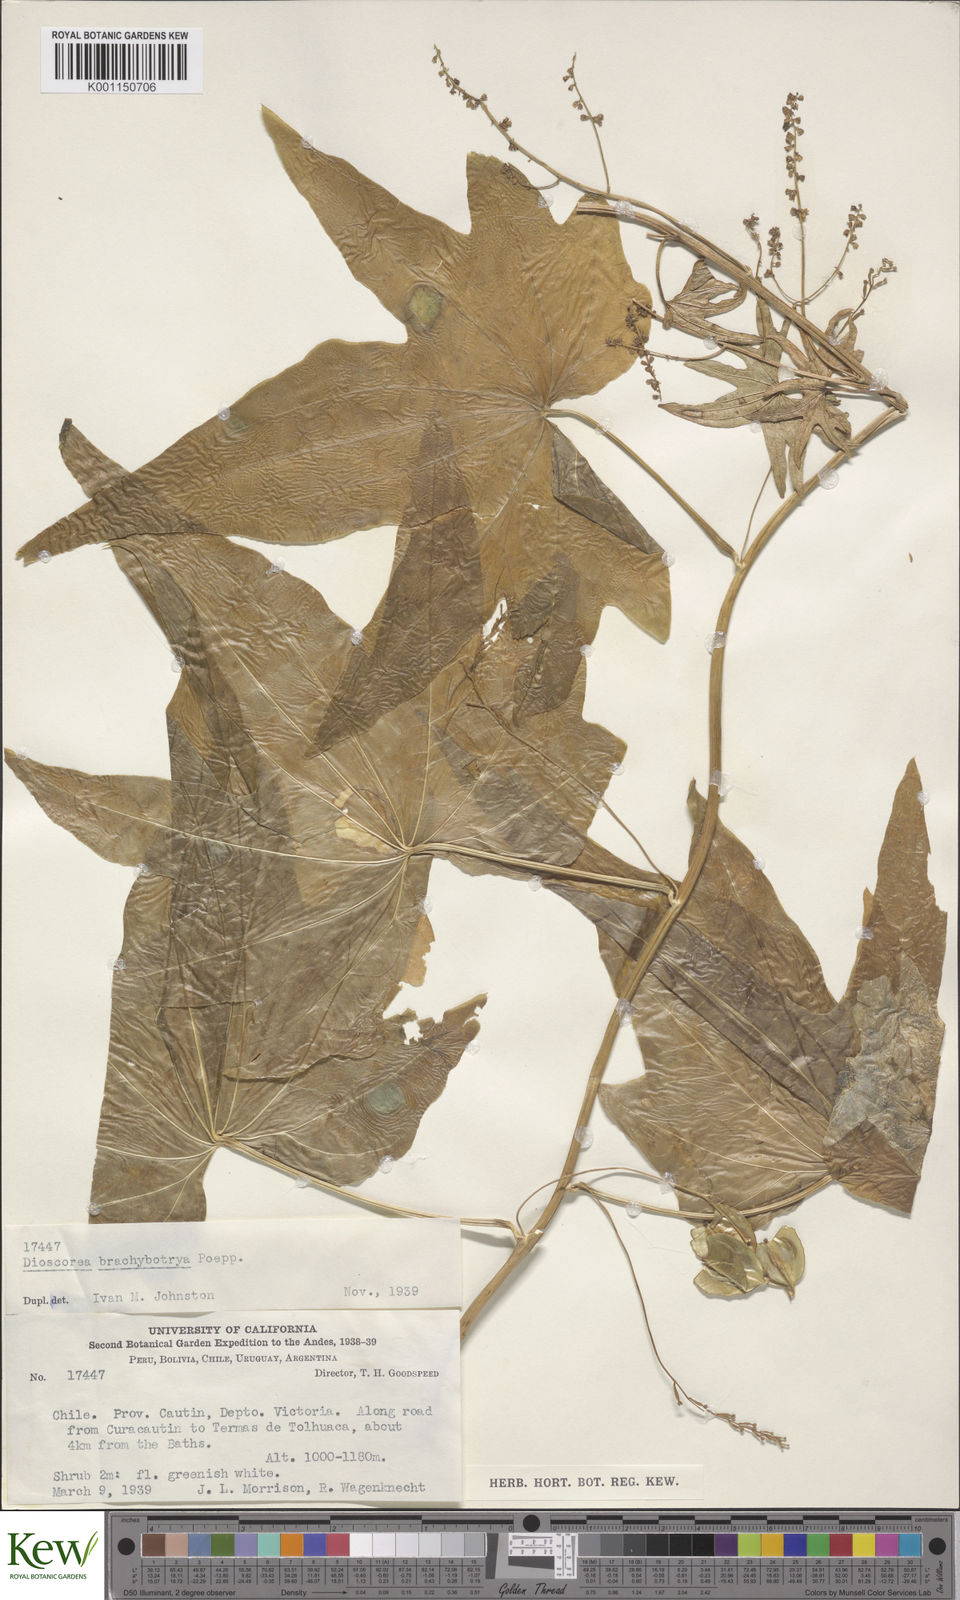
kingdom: Plantae
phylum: Tracheophyta
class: Liliopsida
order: Dioscoreales
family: Dioscoreaceae
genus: Dioscorea
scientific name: Dioscorea brachybotrya
